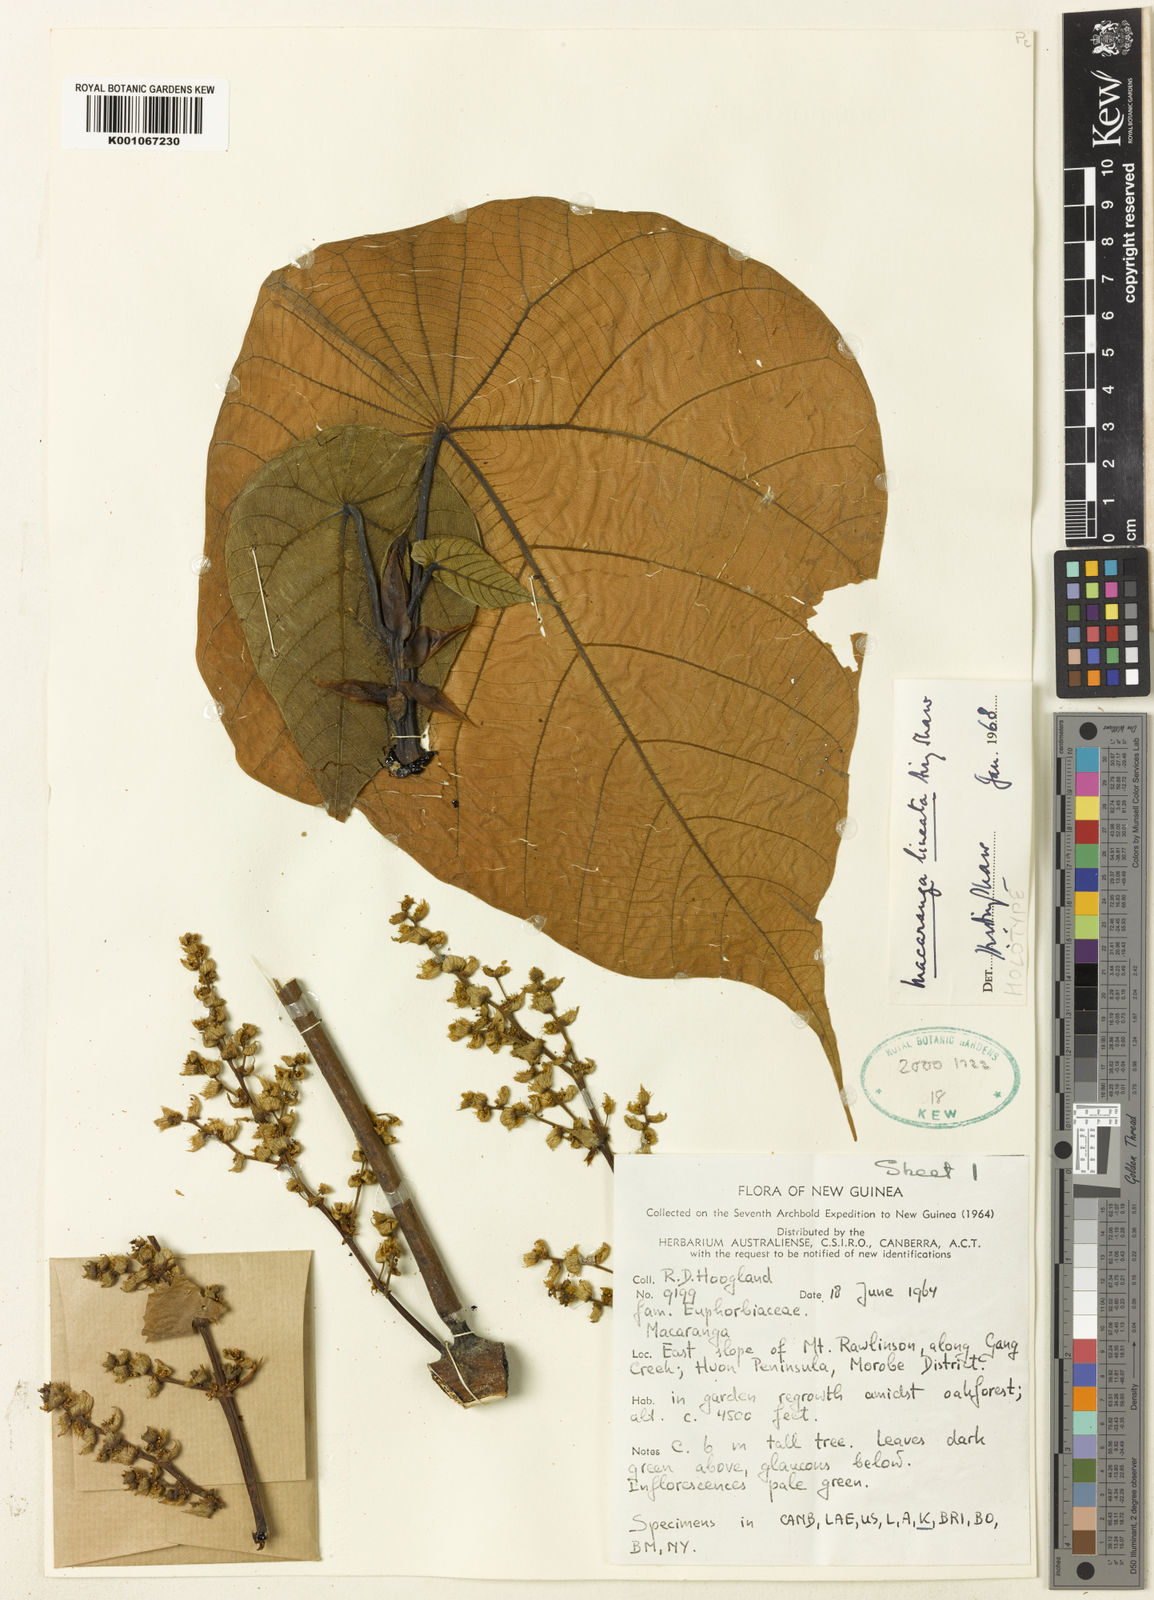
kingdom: Plantae
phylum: Tracheophyta
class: Magnoliopsida
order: Malpighiales
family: Euphorbiaceae
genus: Macaranga
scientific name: Macaranga lineata
